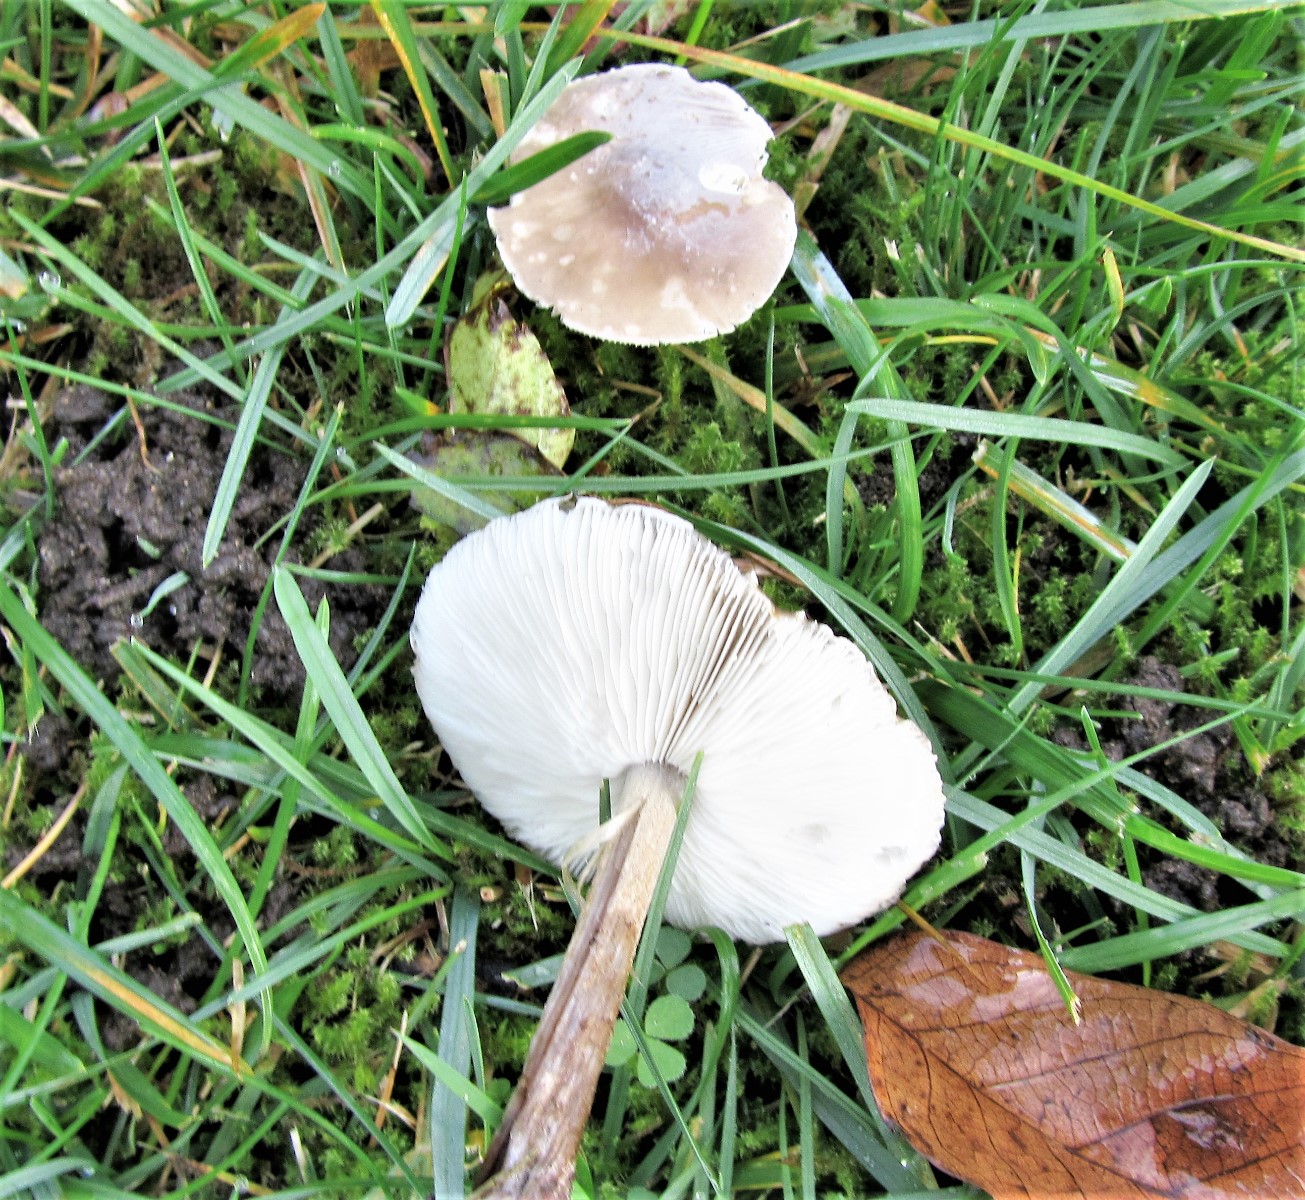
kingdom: Fungi
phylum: Basidiomycota
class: Agaricomycetes
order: Agaricales
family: Tricholomataceae
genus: Melanoleuca
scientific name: Melanoleuca
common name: munkehat
